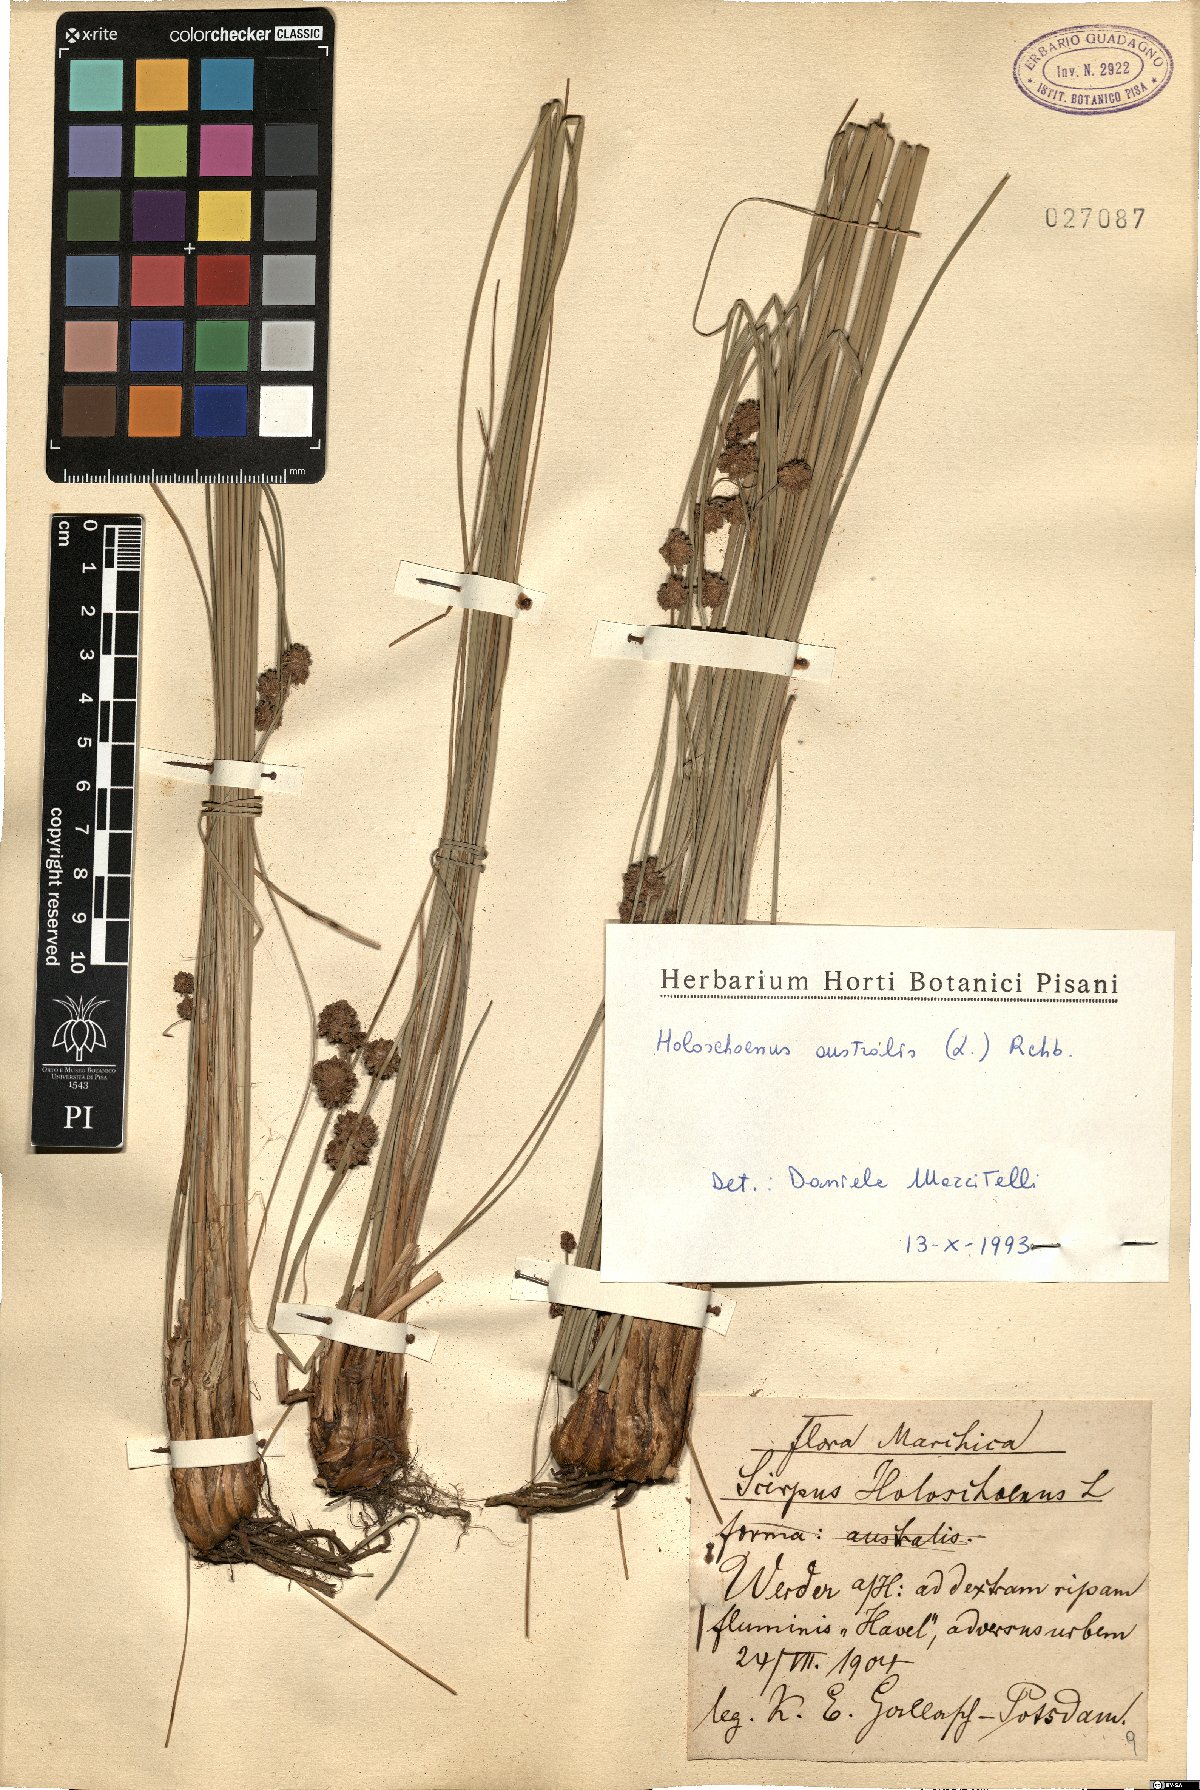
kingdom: Plantae
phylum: Tracheophyta
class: Liliopsida
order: Poales
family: Cyperaceae
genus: Scirpoides
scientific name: Scirpoides holoschoenus
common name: Round-headed club-rush
